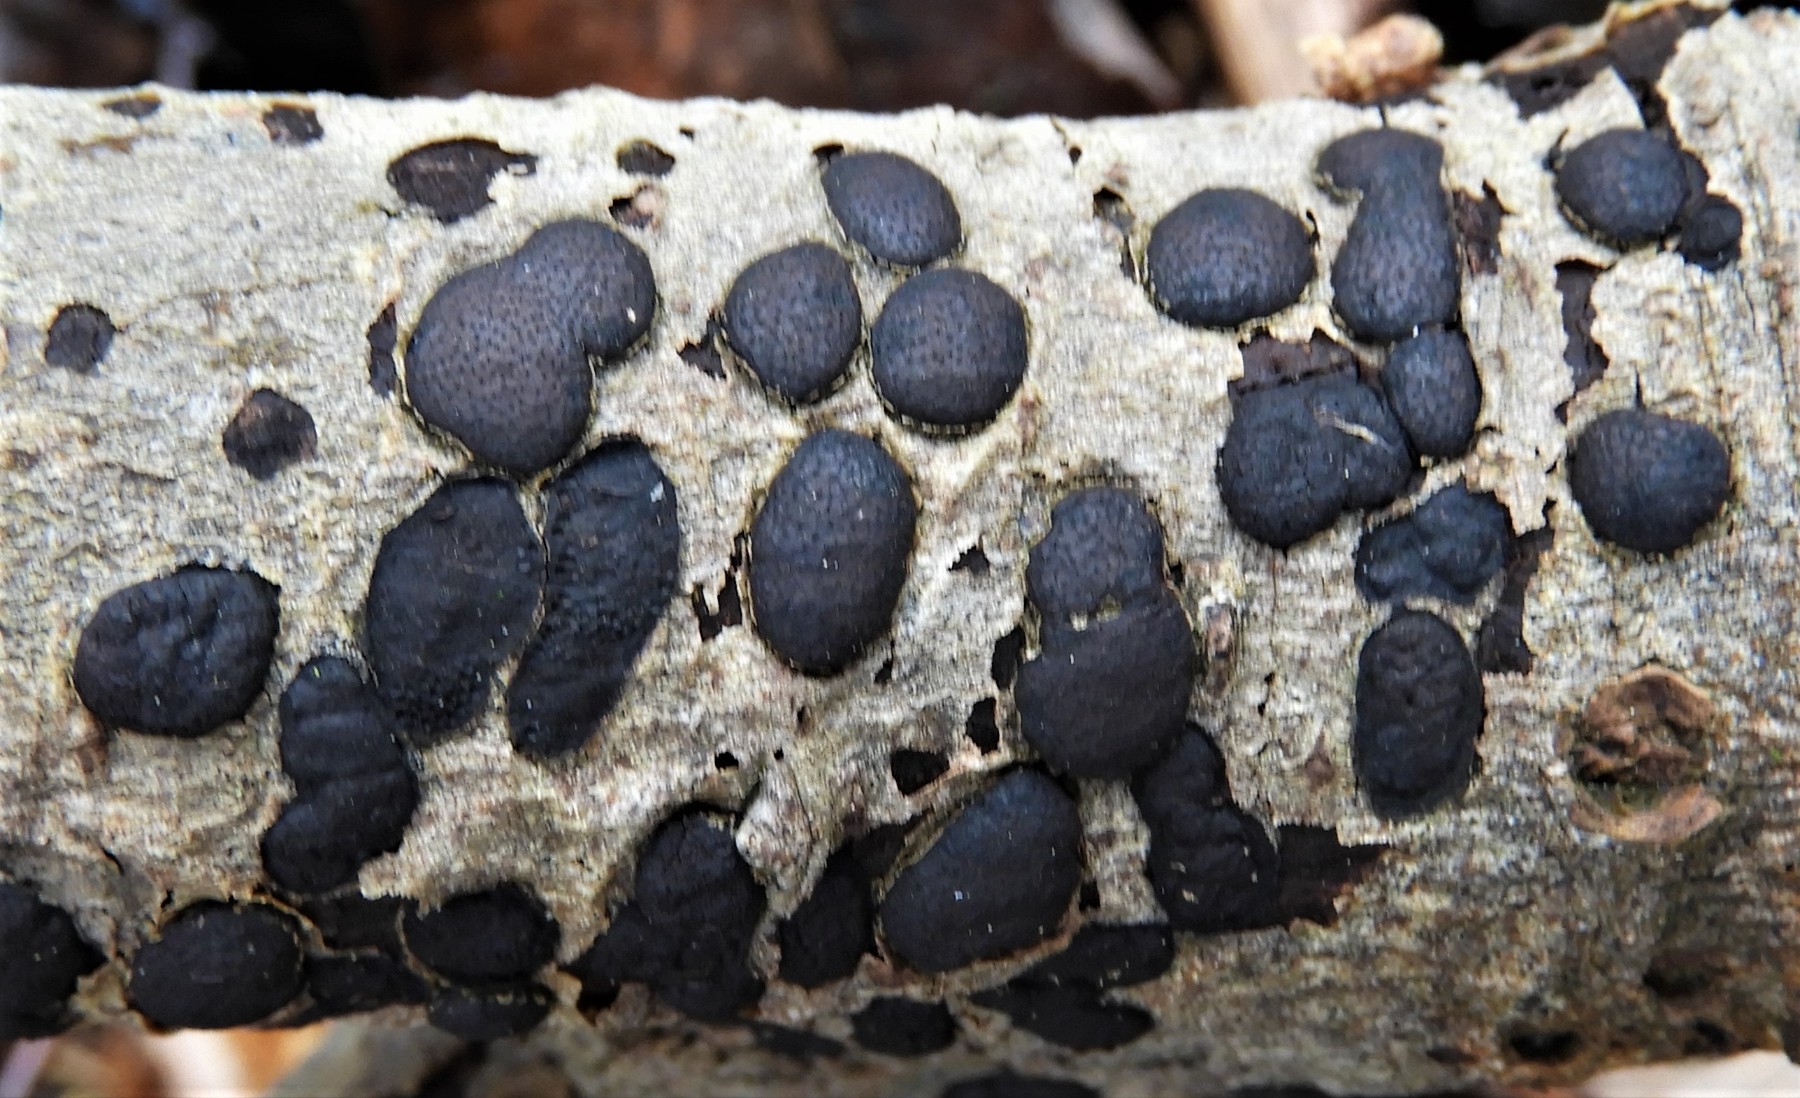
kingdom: Fungi
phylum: Ascomycota
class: Sordariomycetes
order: Xylariales
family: Diatrypaceae
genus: Diatrype
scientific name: Diatrype bullata
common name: pile-kulskorpe
